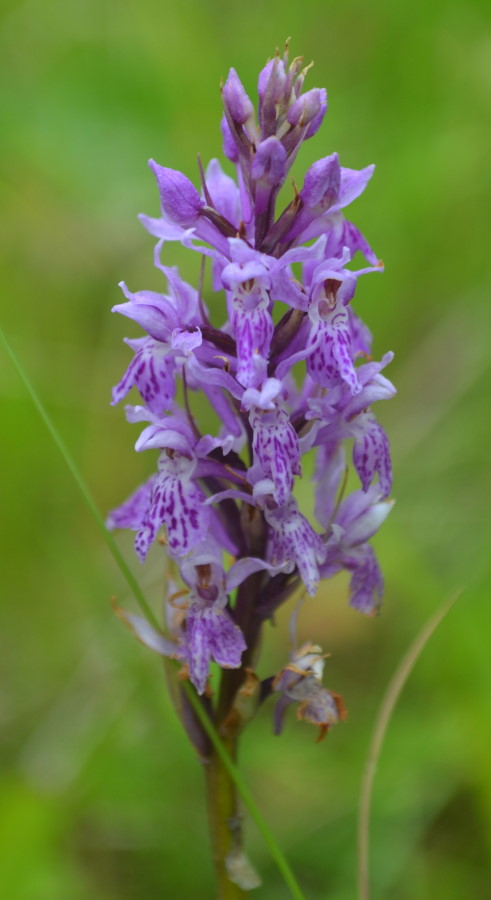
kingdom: Plantae
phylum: Tracheophyta
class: Liliopsida
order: Asparagales
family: Orchidaceae
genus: Dactylorhiza
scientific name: Dactylorhiza maculata
